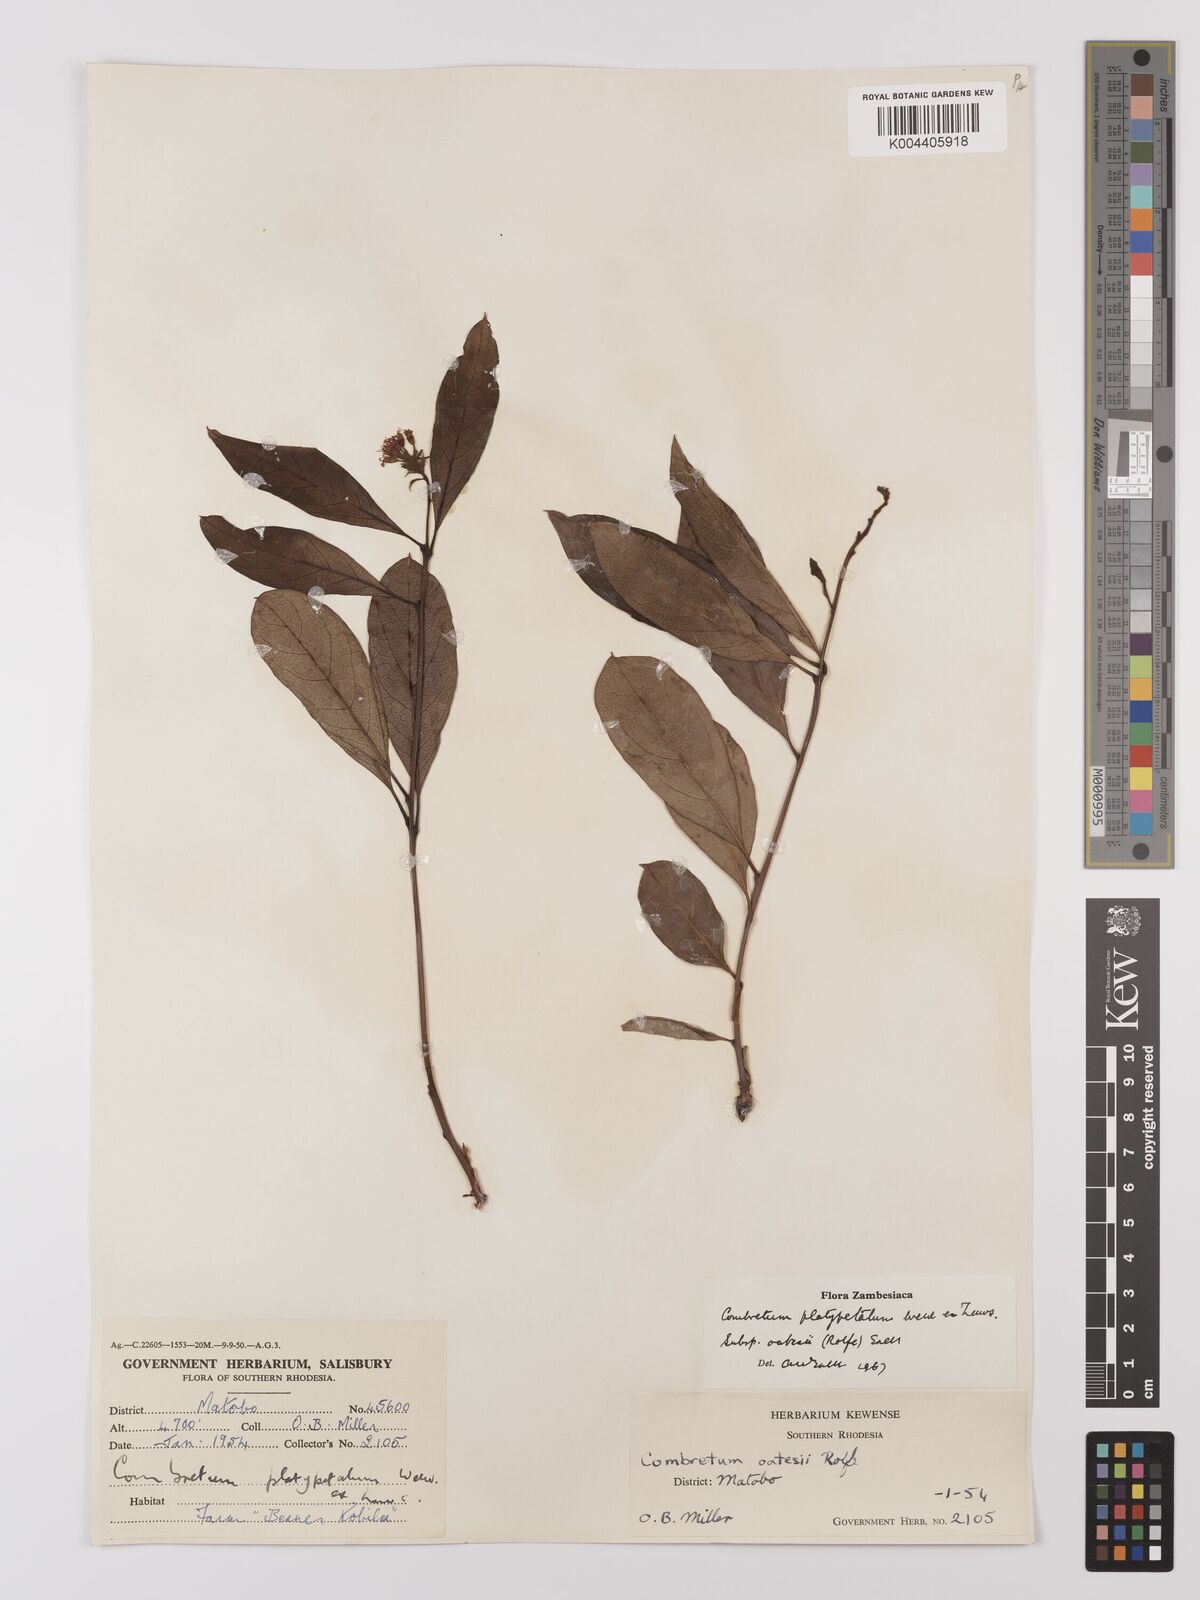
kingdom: Plantae
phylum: Tracheophyta
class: Magnoliopsida
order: Myrtales
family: Combretaceae
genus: Combretum
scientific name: Combretum platypetalum
